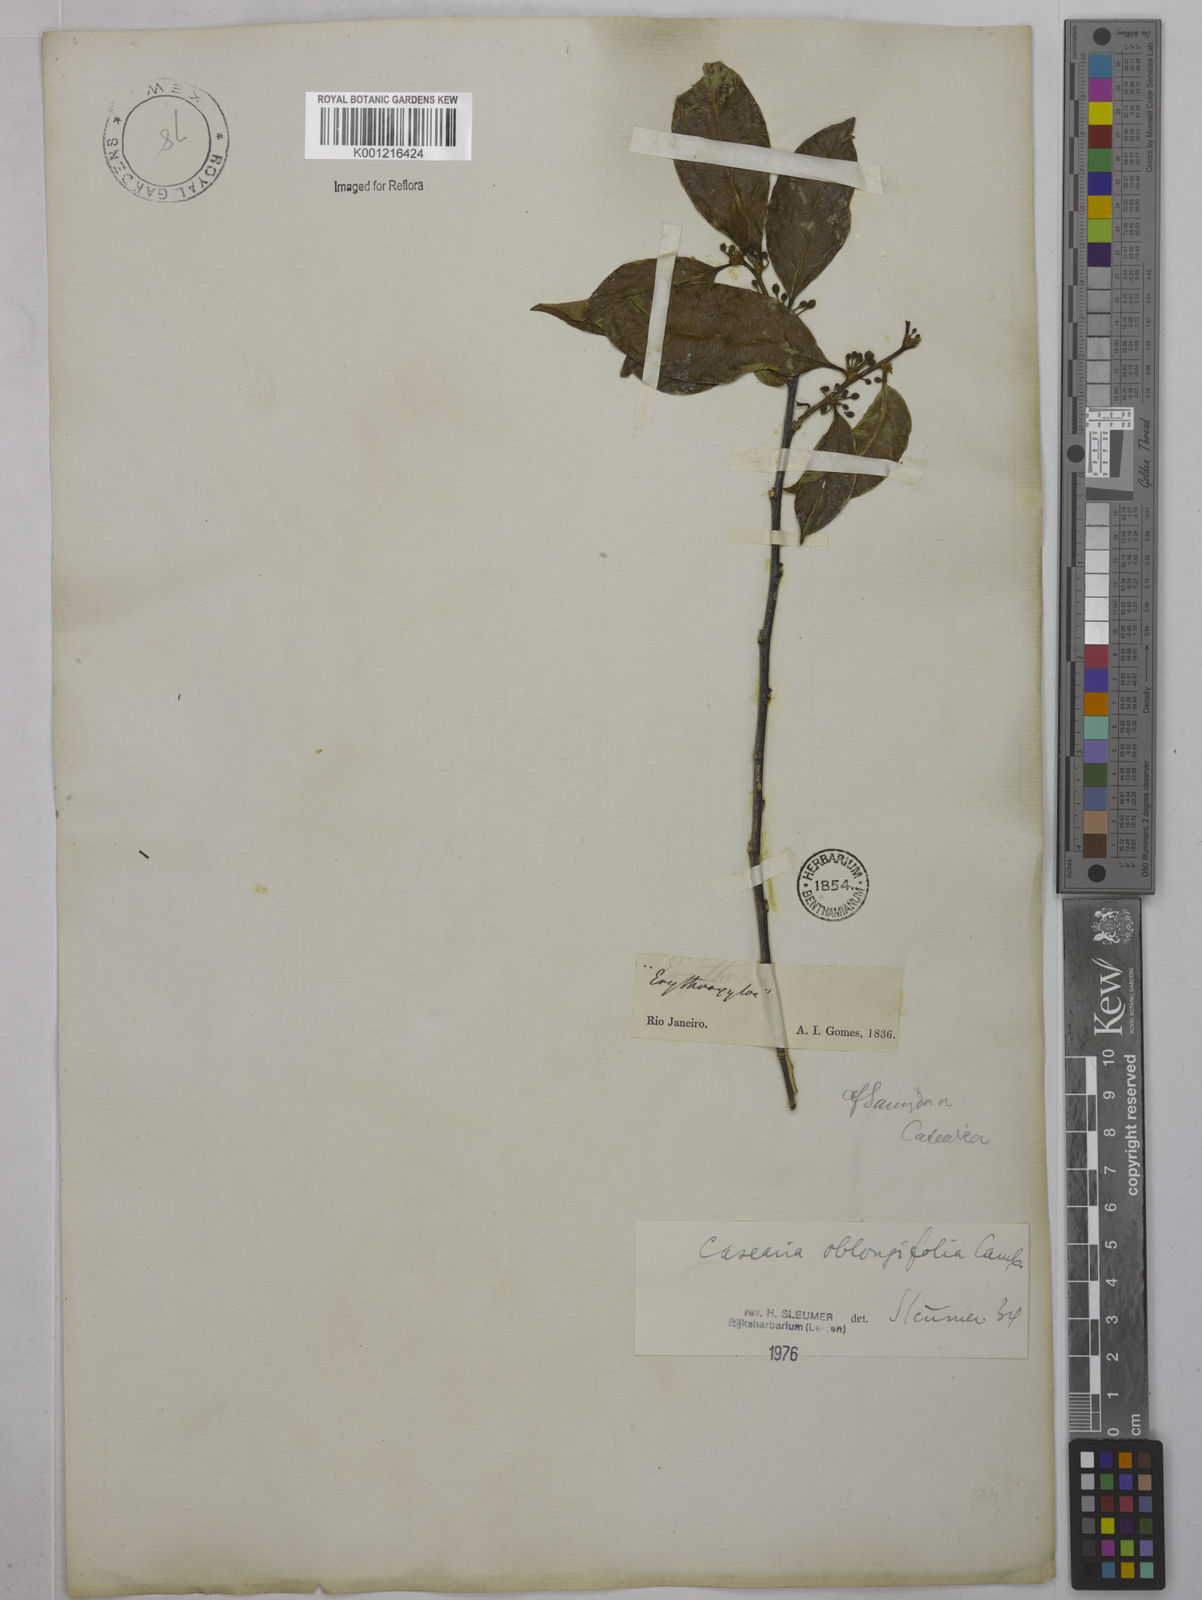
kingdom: Plantae
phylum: Tracheophyta
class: Magnoliopsida
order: Malpighiales
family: Salicaceae
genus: Casearia
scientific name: Casearia oblongifolia
